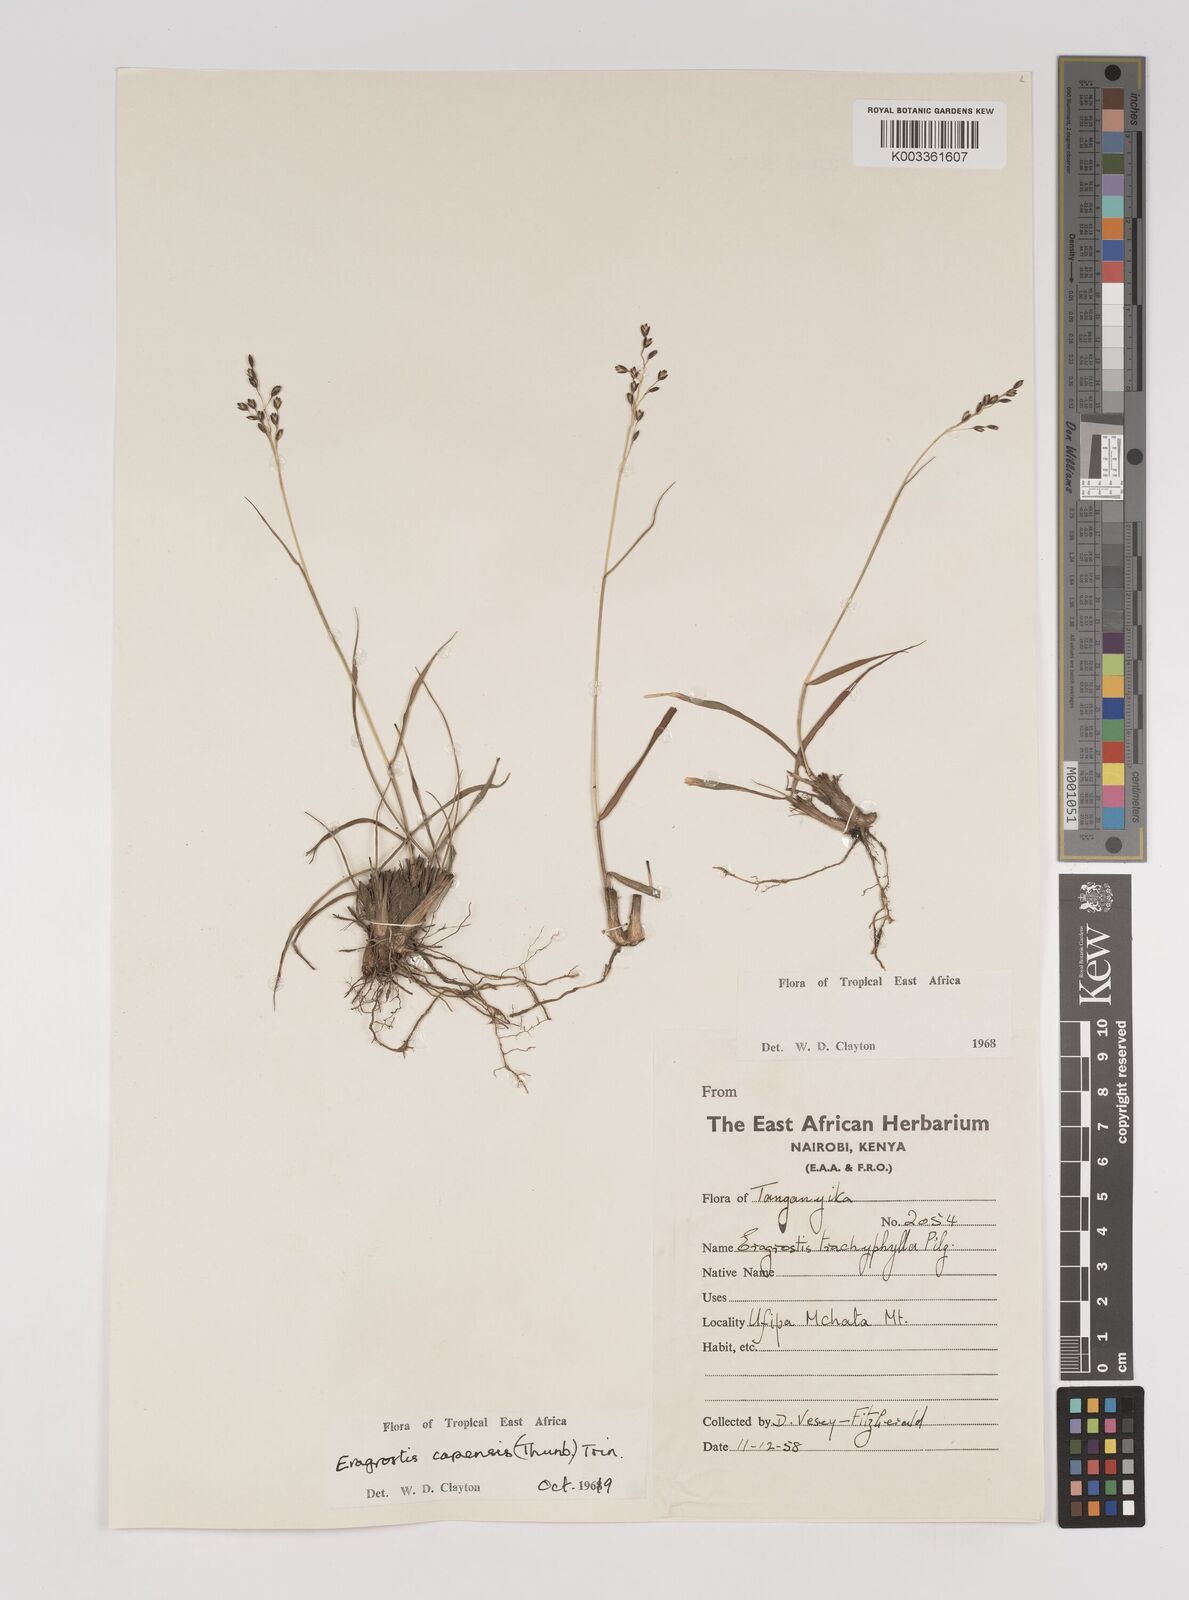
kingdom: Plantae
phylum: Tracheophyta
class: Liliopsida
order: Poales
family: Poaceae
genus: Eragrostis
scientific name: Eragrostis capensis
